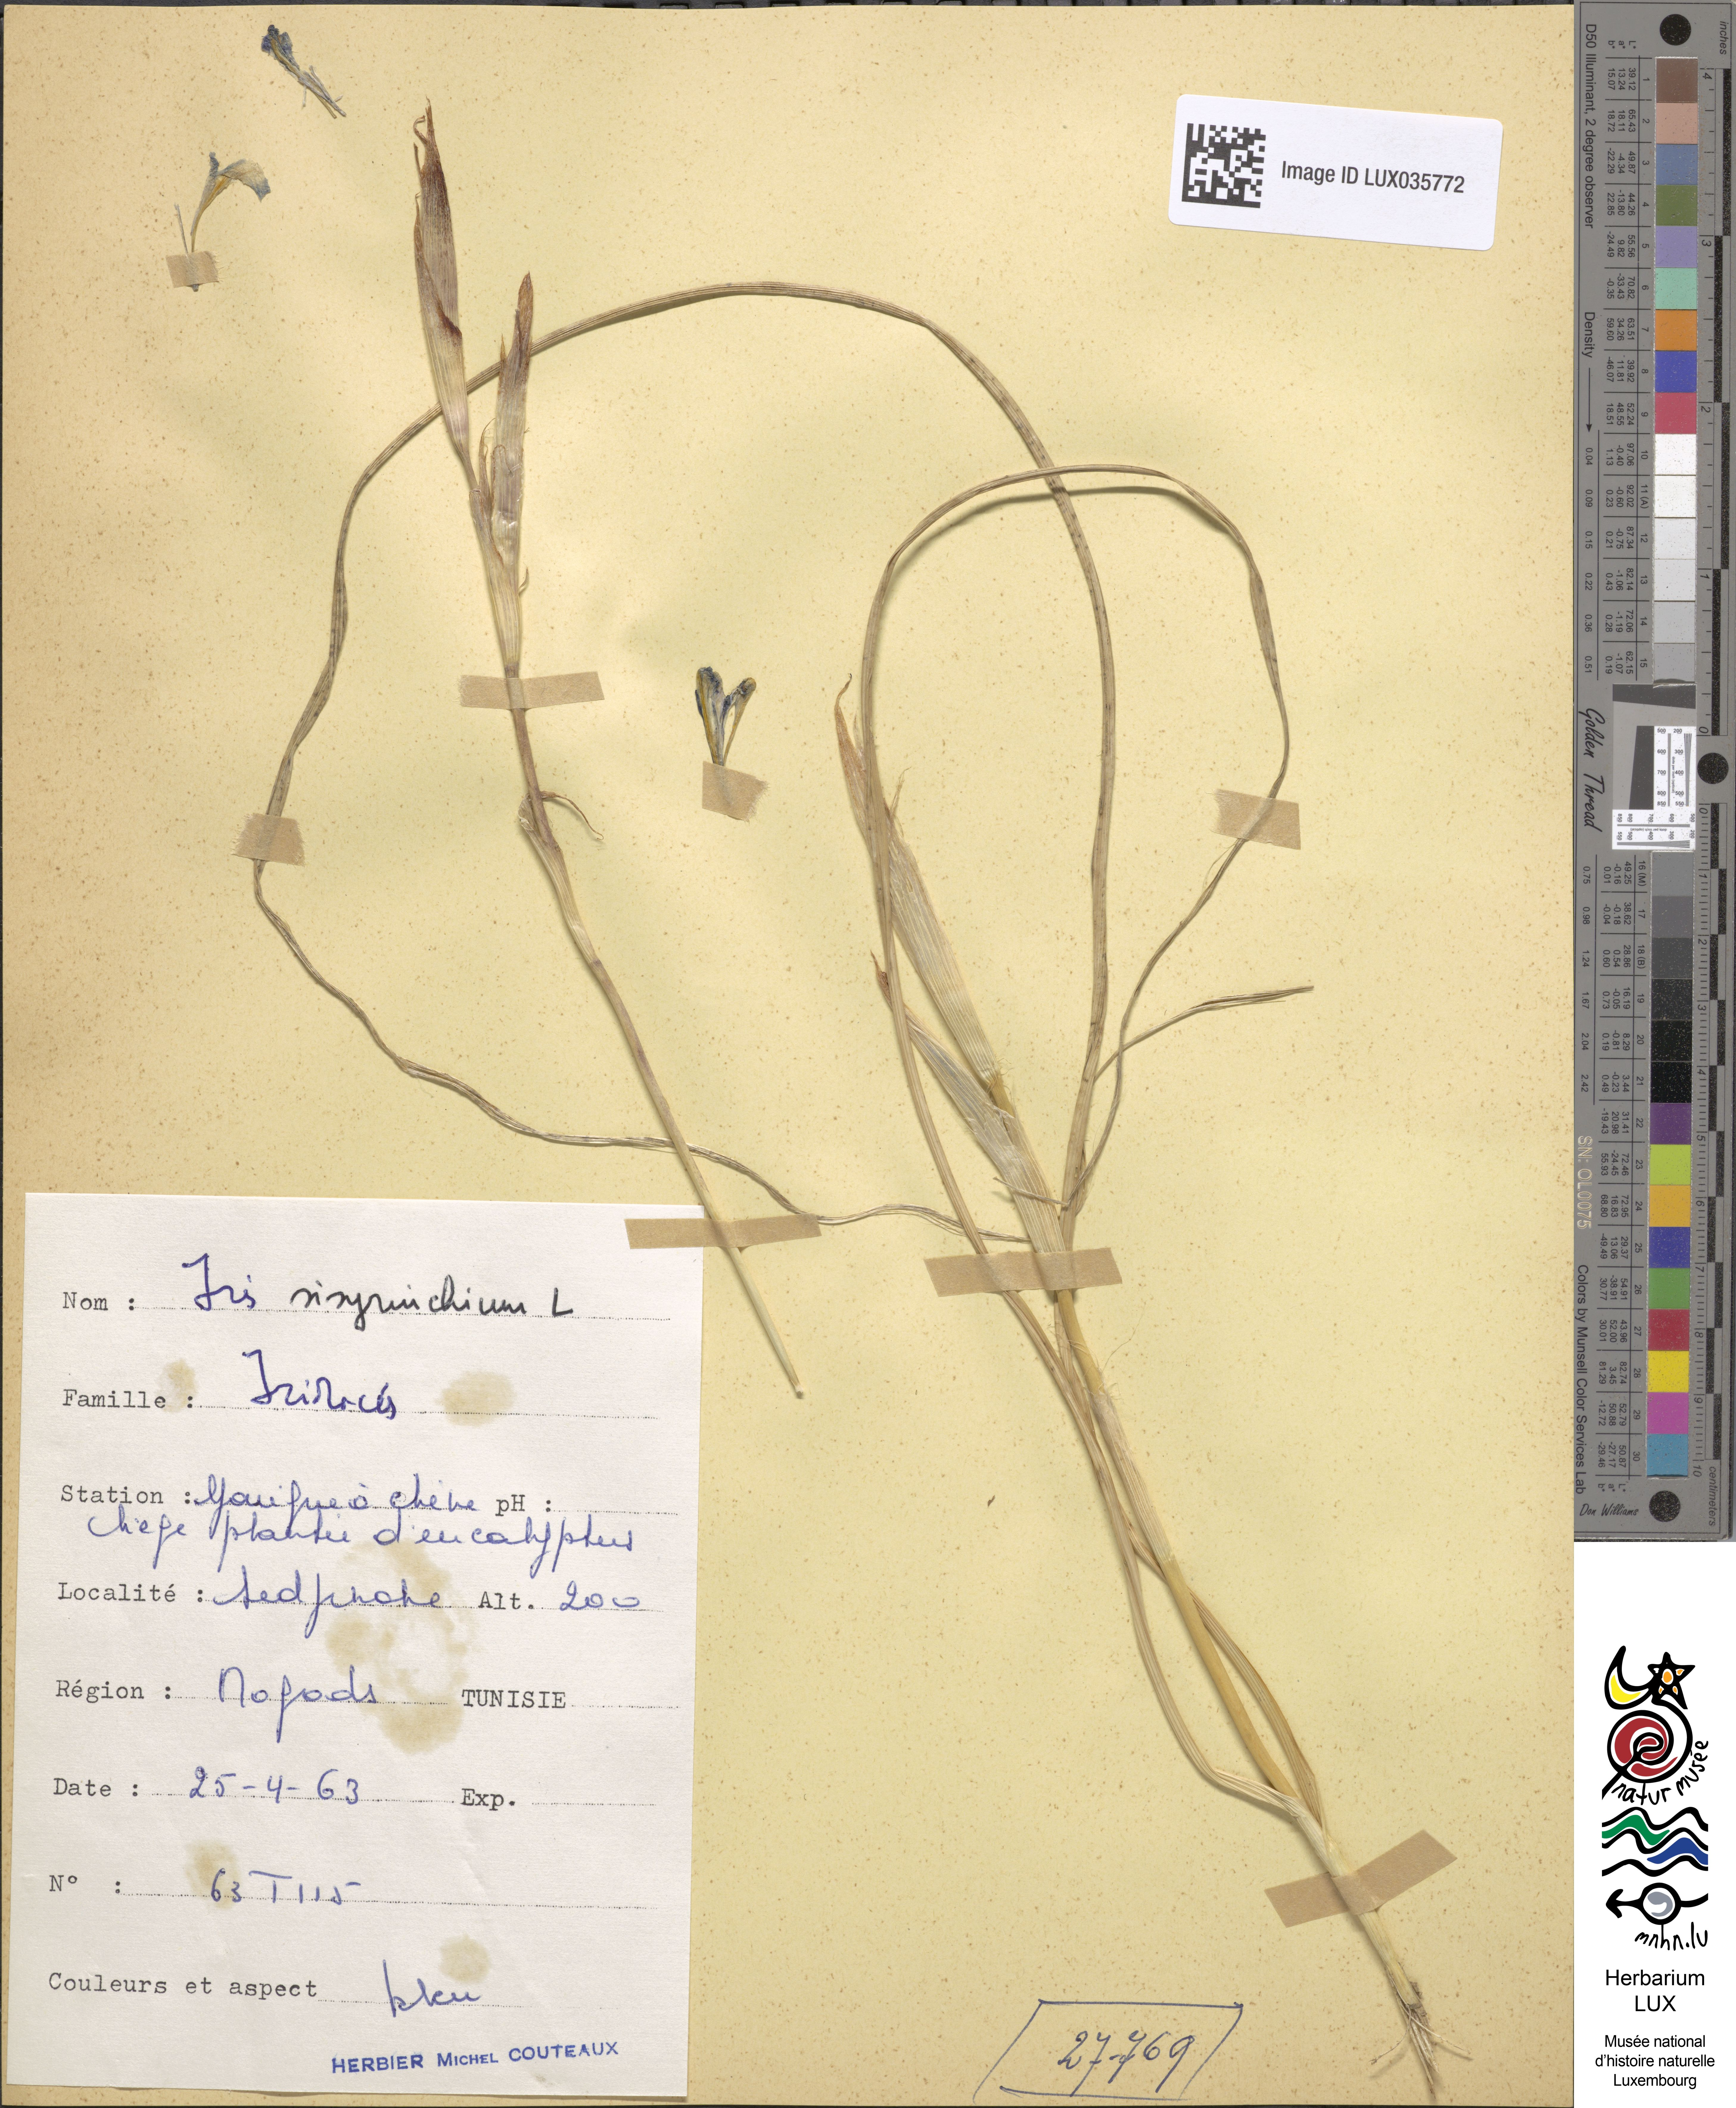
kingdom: Plantae
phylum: Tracheophyta
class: Liliopsida
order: Asparagales
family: Iridaceae
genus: Moraea
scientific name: Moraea sisyrinchium
